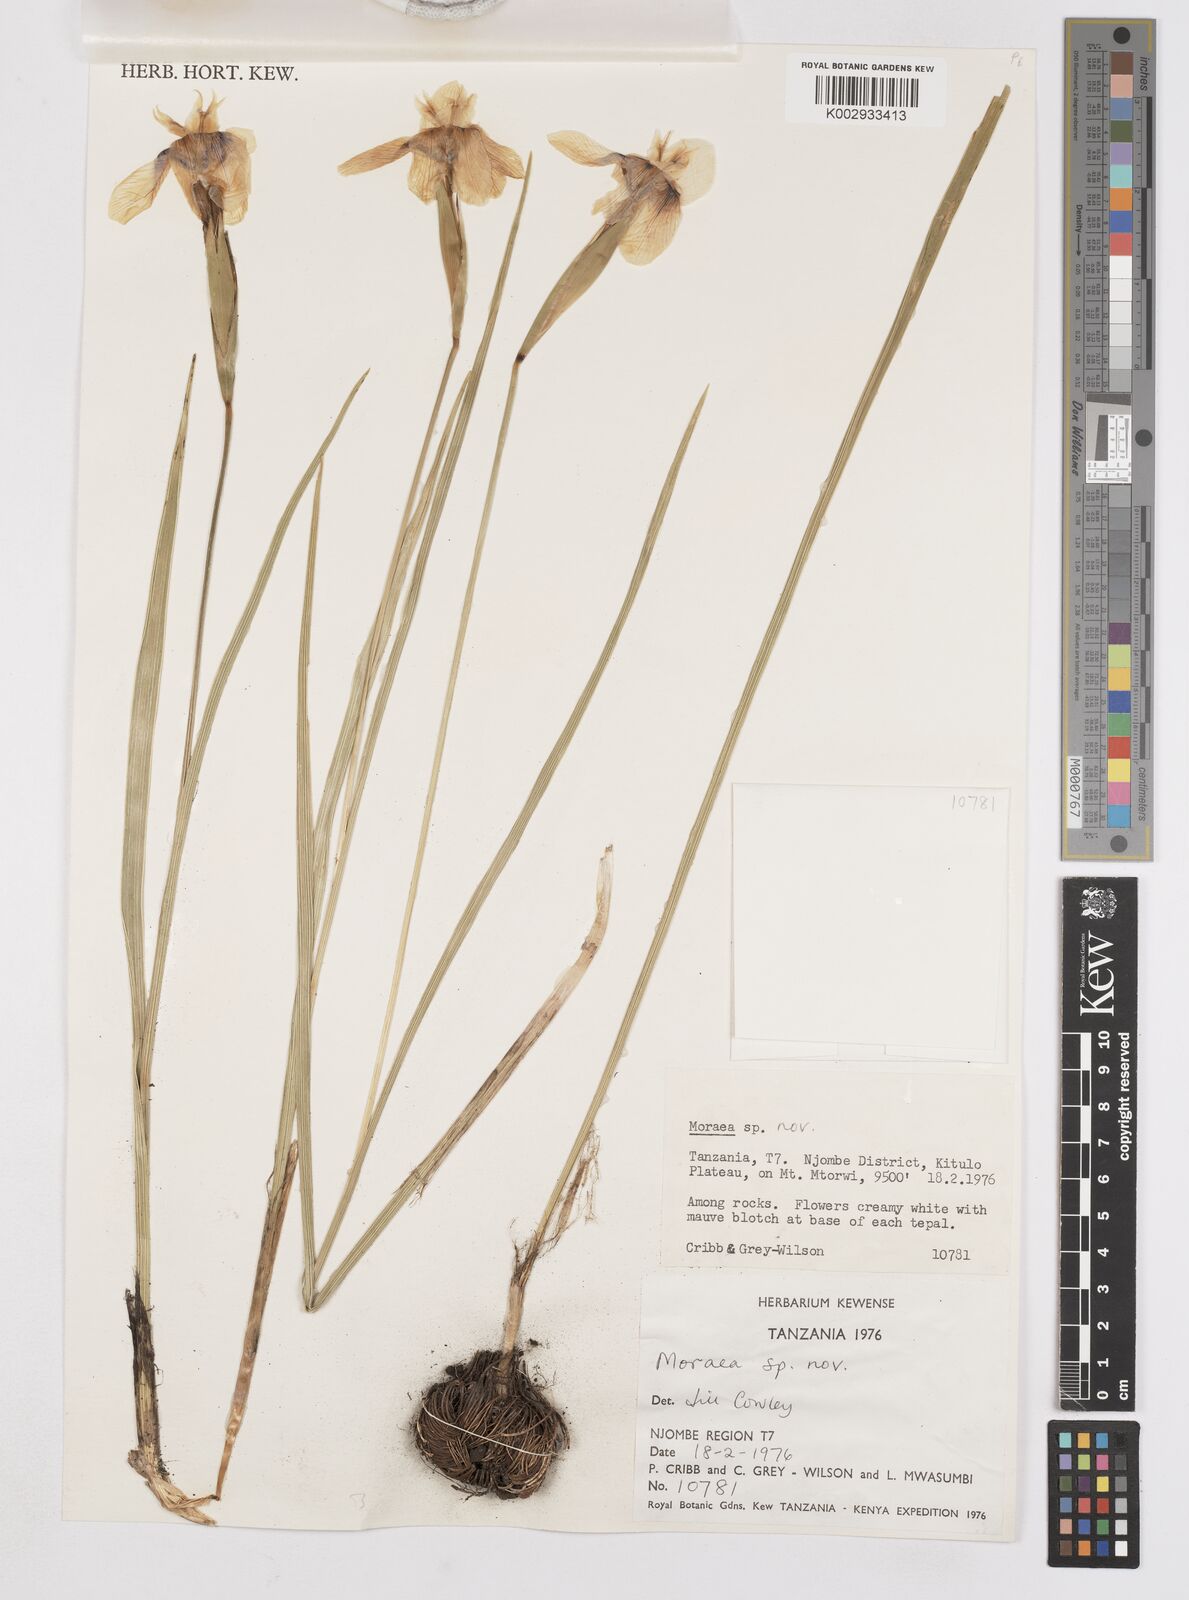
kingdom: Plantae
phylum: Tracheophyta
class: Liliopsida
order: Asparagales
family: Iridaceae
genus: Moraea
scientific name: Moraea callista
